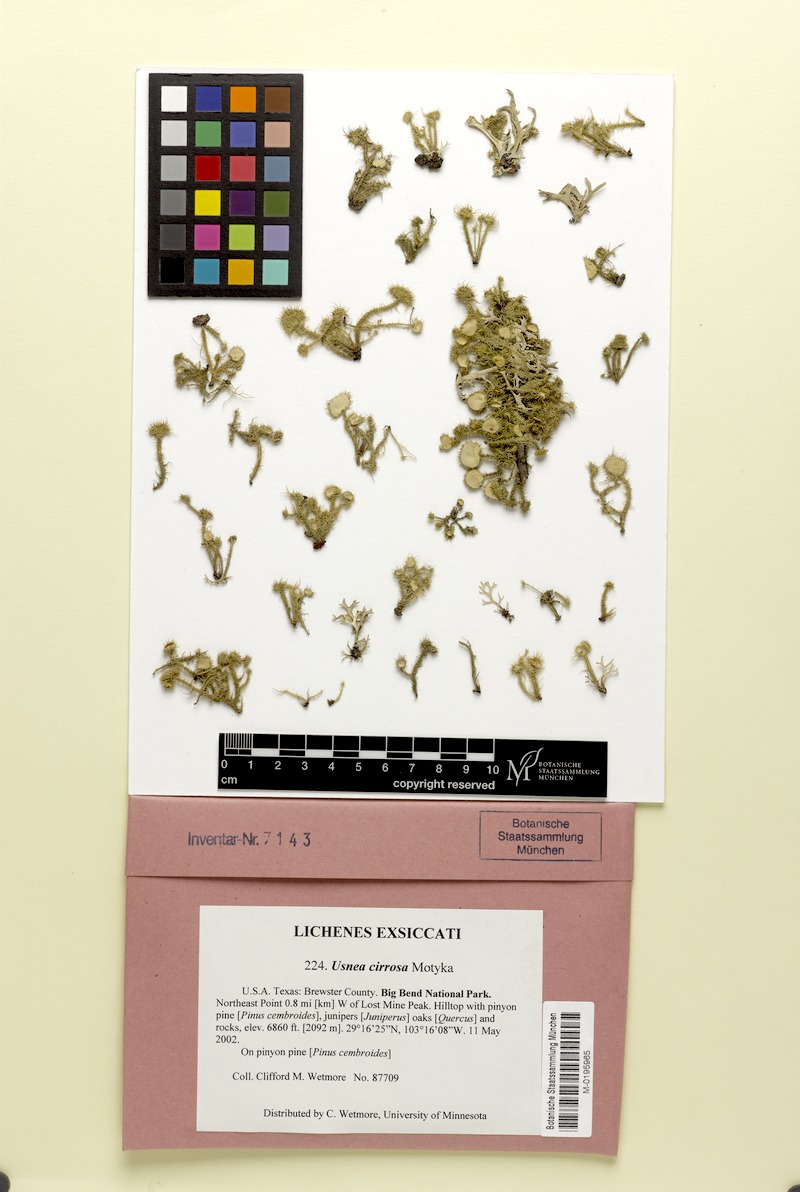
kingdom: Fungi
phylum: Ascomycota
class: Lecanoromycetes
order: Lecanorales
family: Parmeliaceae
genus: Usnea
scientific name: Usnea cirrosa
